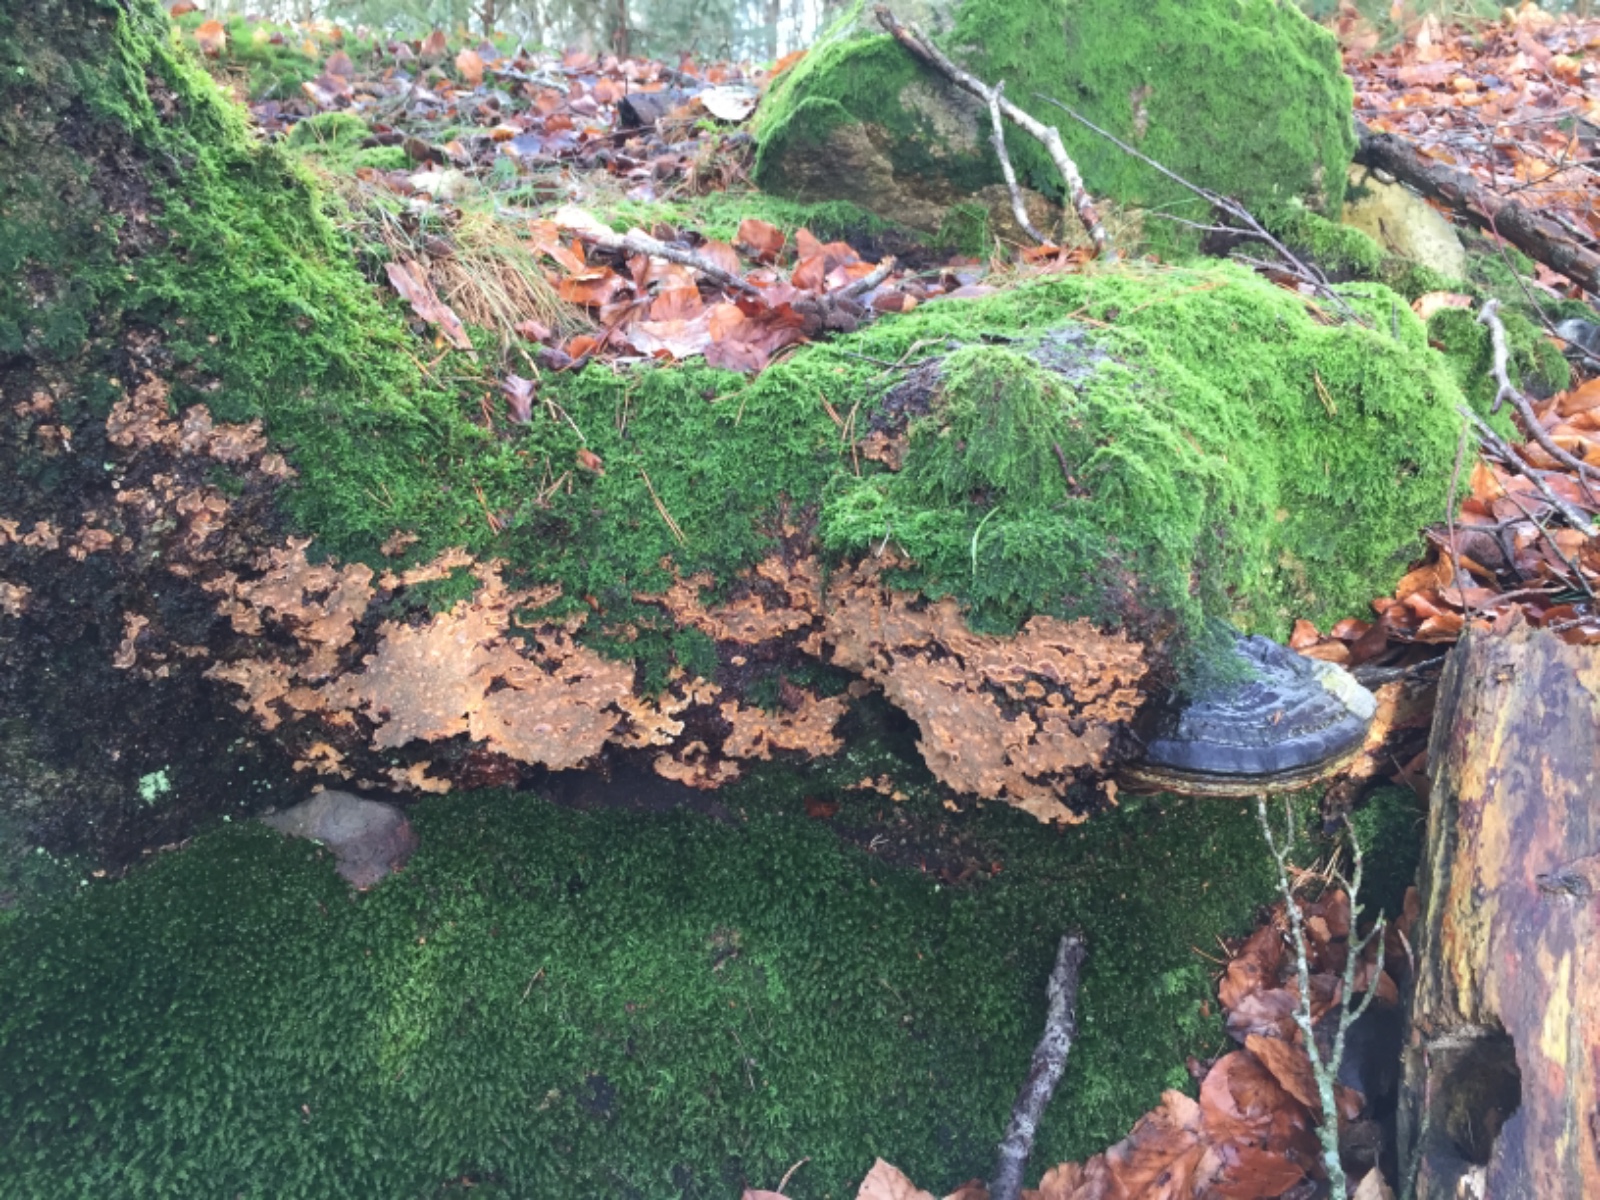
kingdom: Fungi
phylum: Basidiomycota
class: Agaricomycetes
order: Russulales
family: Stereaceae
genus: Stereum
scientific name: Stereum rugosum
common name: rynket lædersvamp
